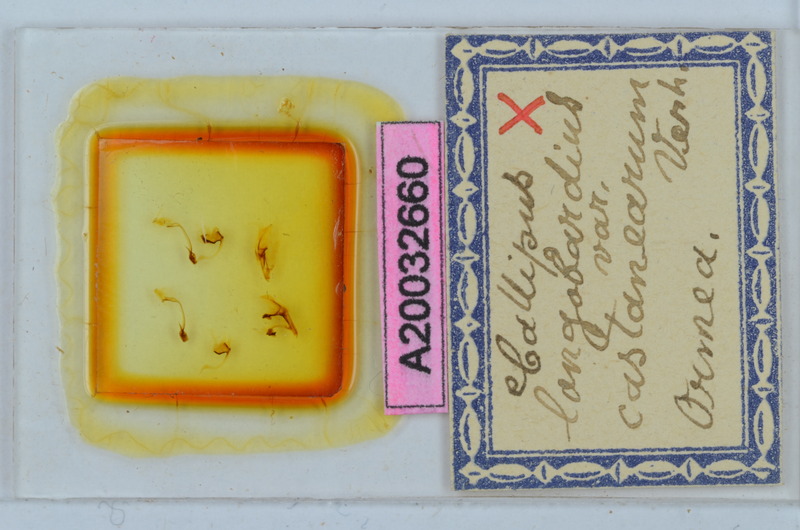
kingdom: Animalia
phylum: Arthropoda
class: Diplopoda
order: Callipodida
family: Callipodidae
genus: Callipus
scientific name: Callipus foetidissimus
